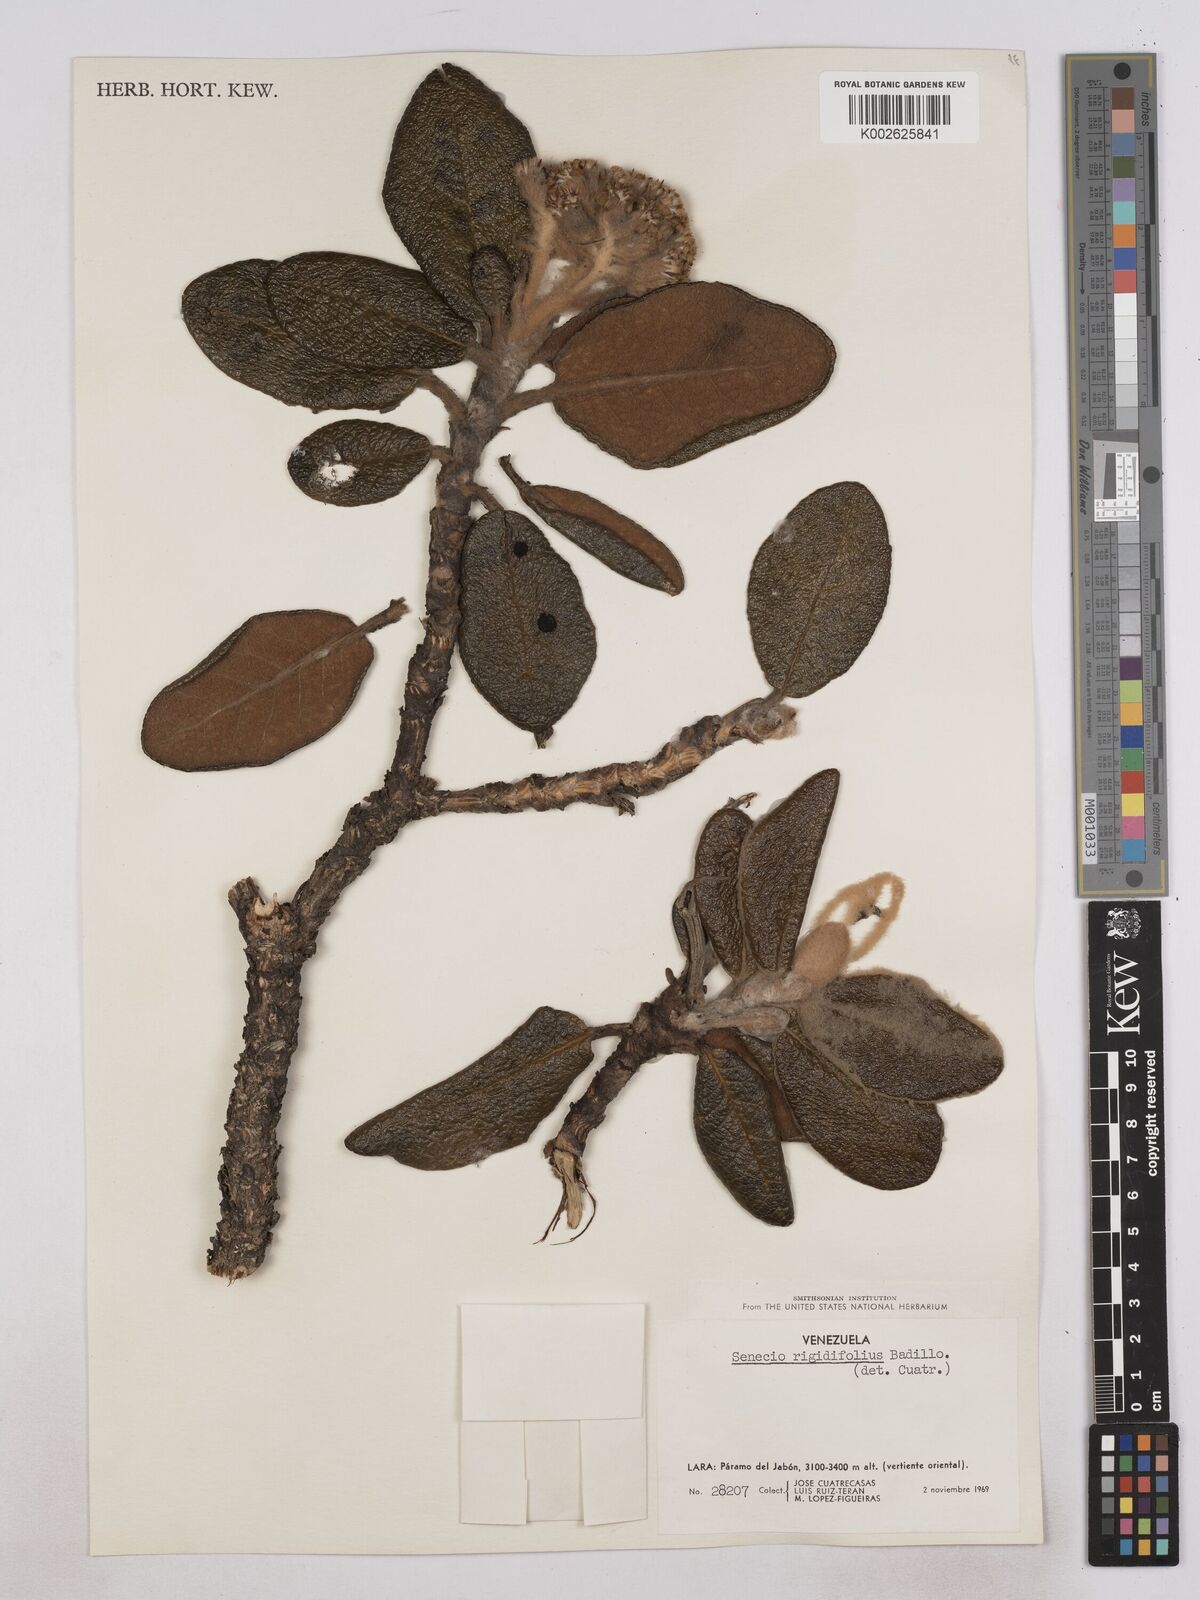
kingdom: Plantae
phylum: Tracheophyta
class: Magnoliopsida
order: Asterales
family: Asteraceae
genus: Monticalia
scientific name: Monticalia rigidifolia
